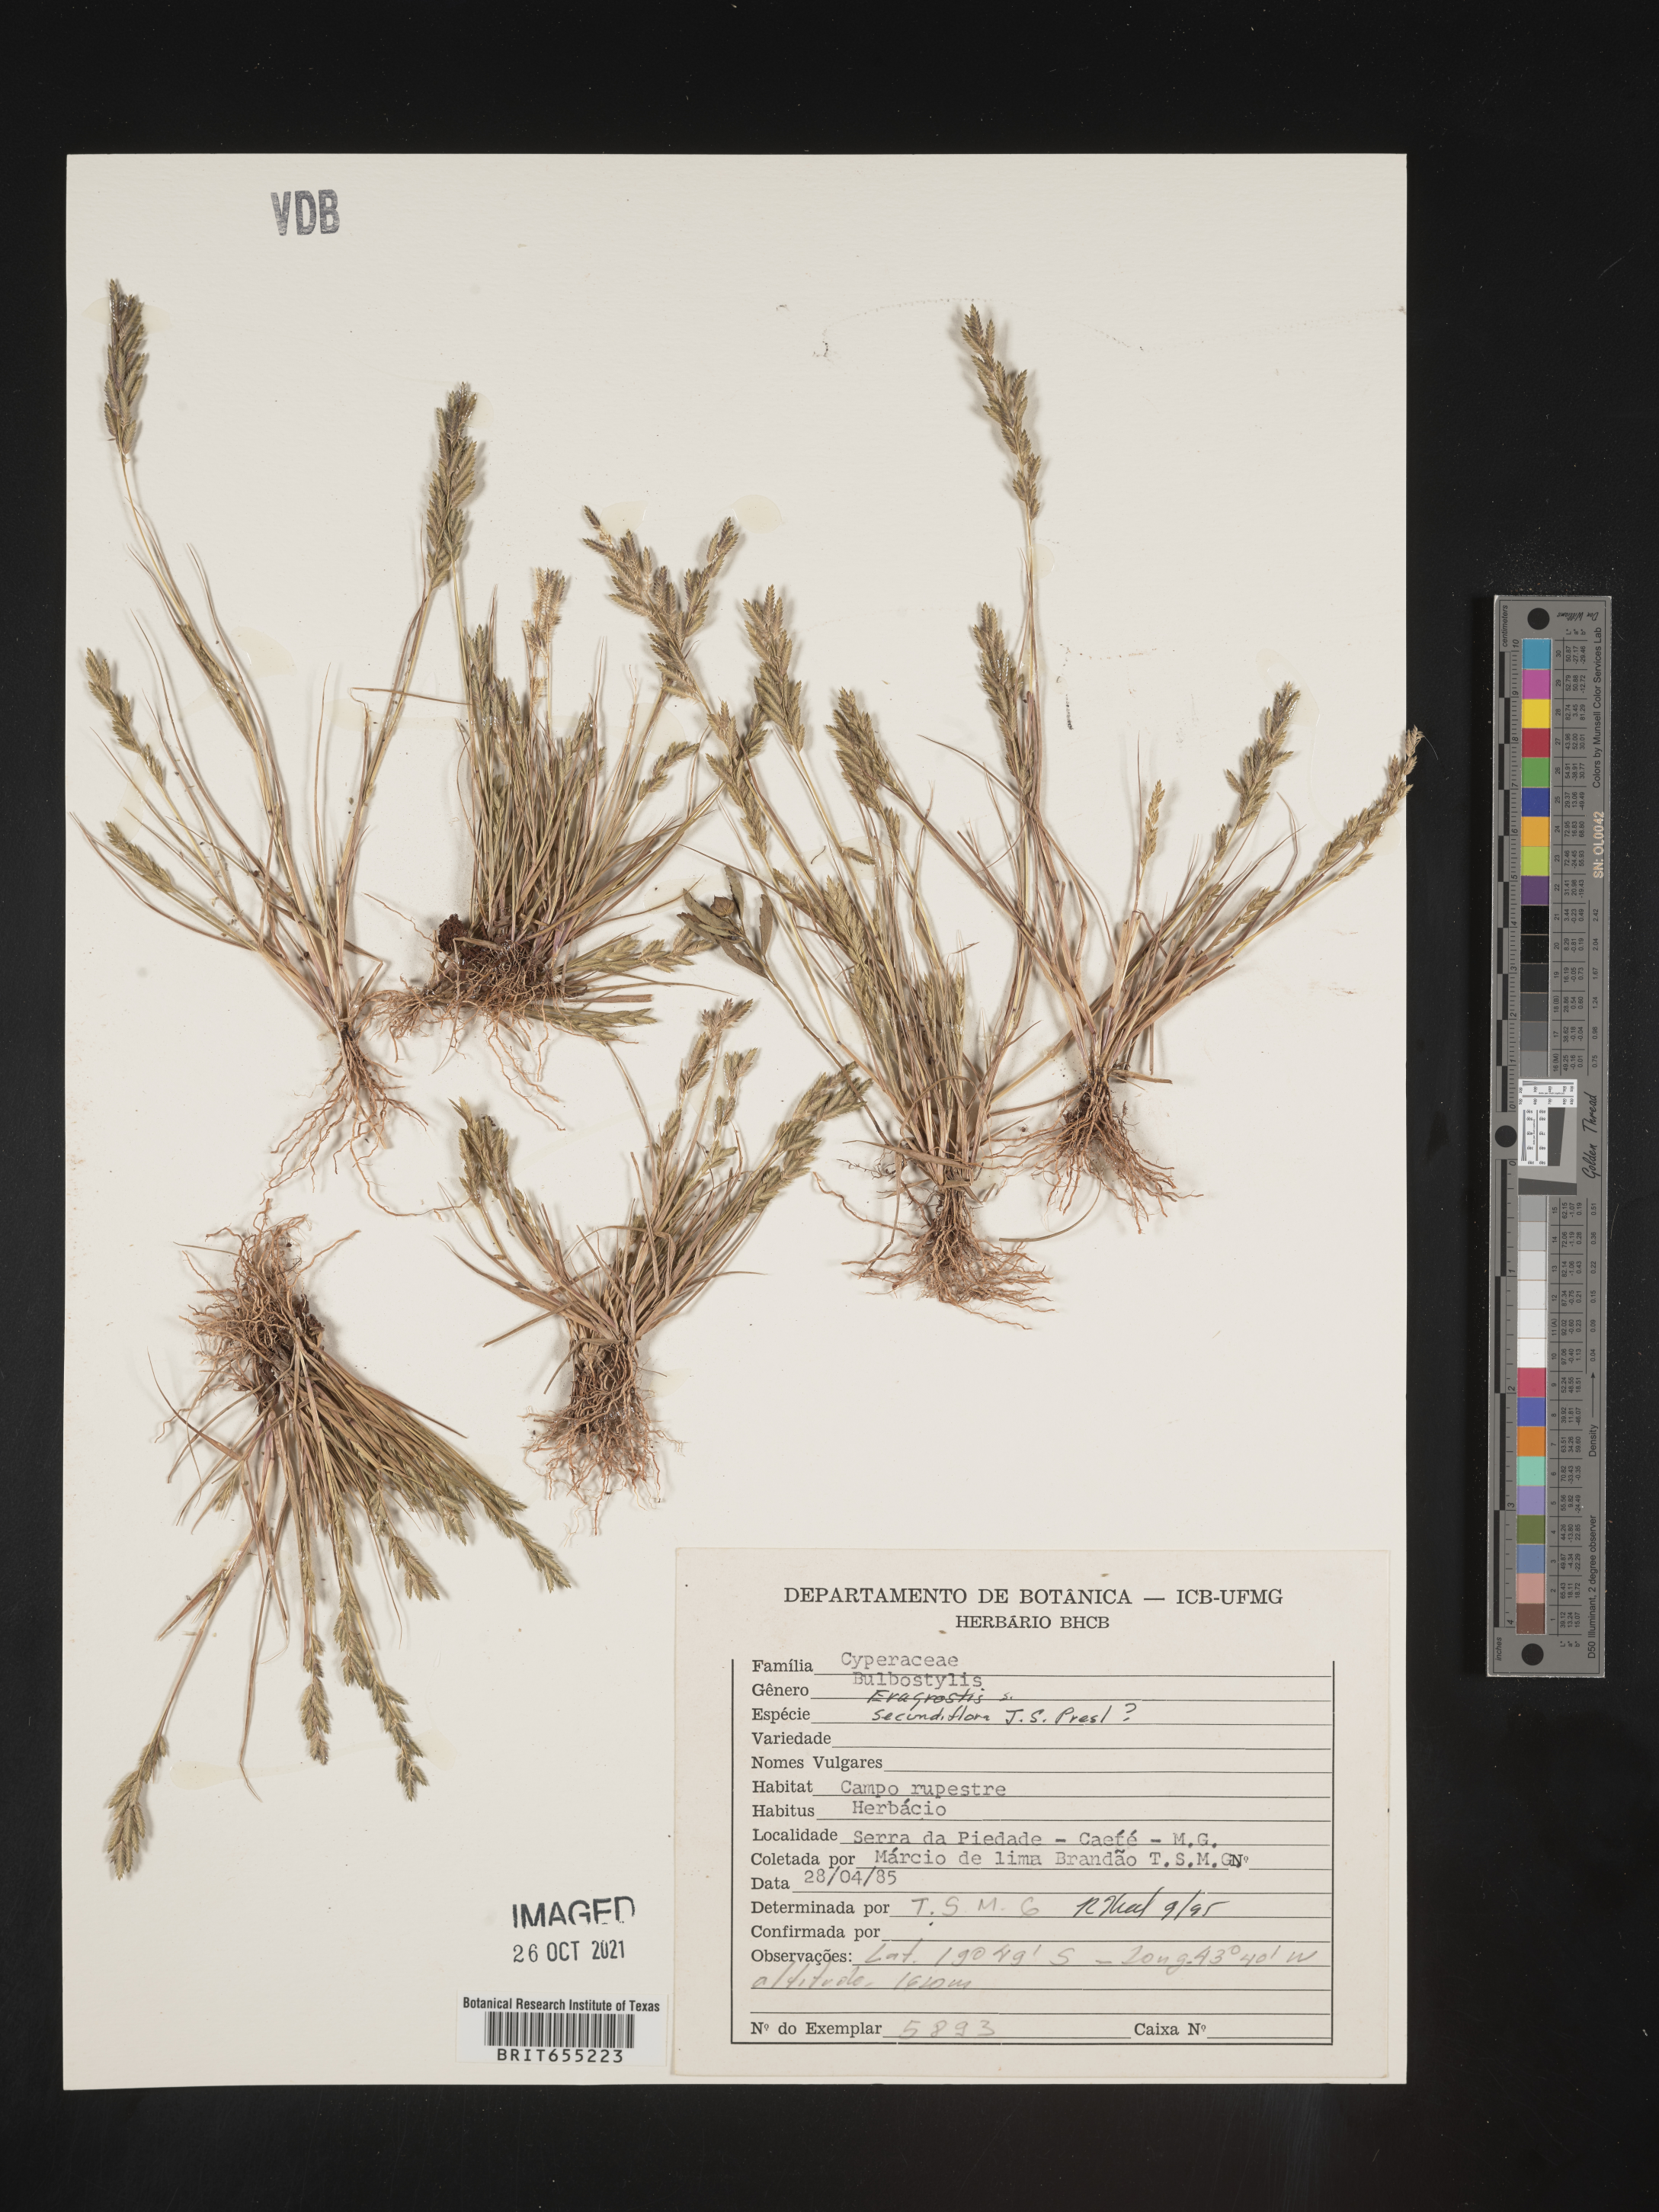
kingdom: Plantae
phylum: Tracheophyta
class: Liliopsida
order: Poales
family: Poaceae
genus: Eragrostis
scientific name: Eragrostis
